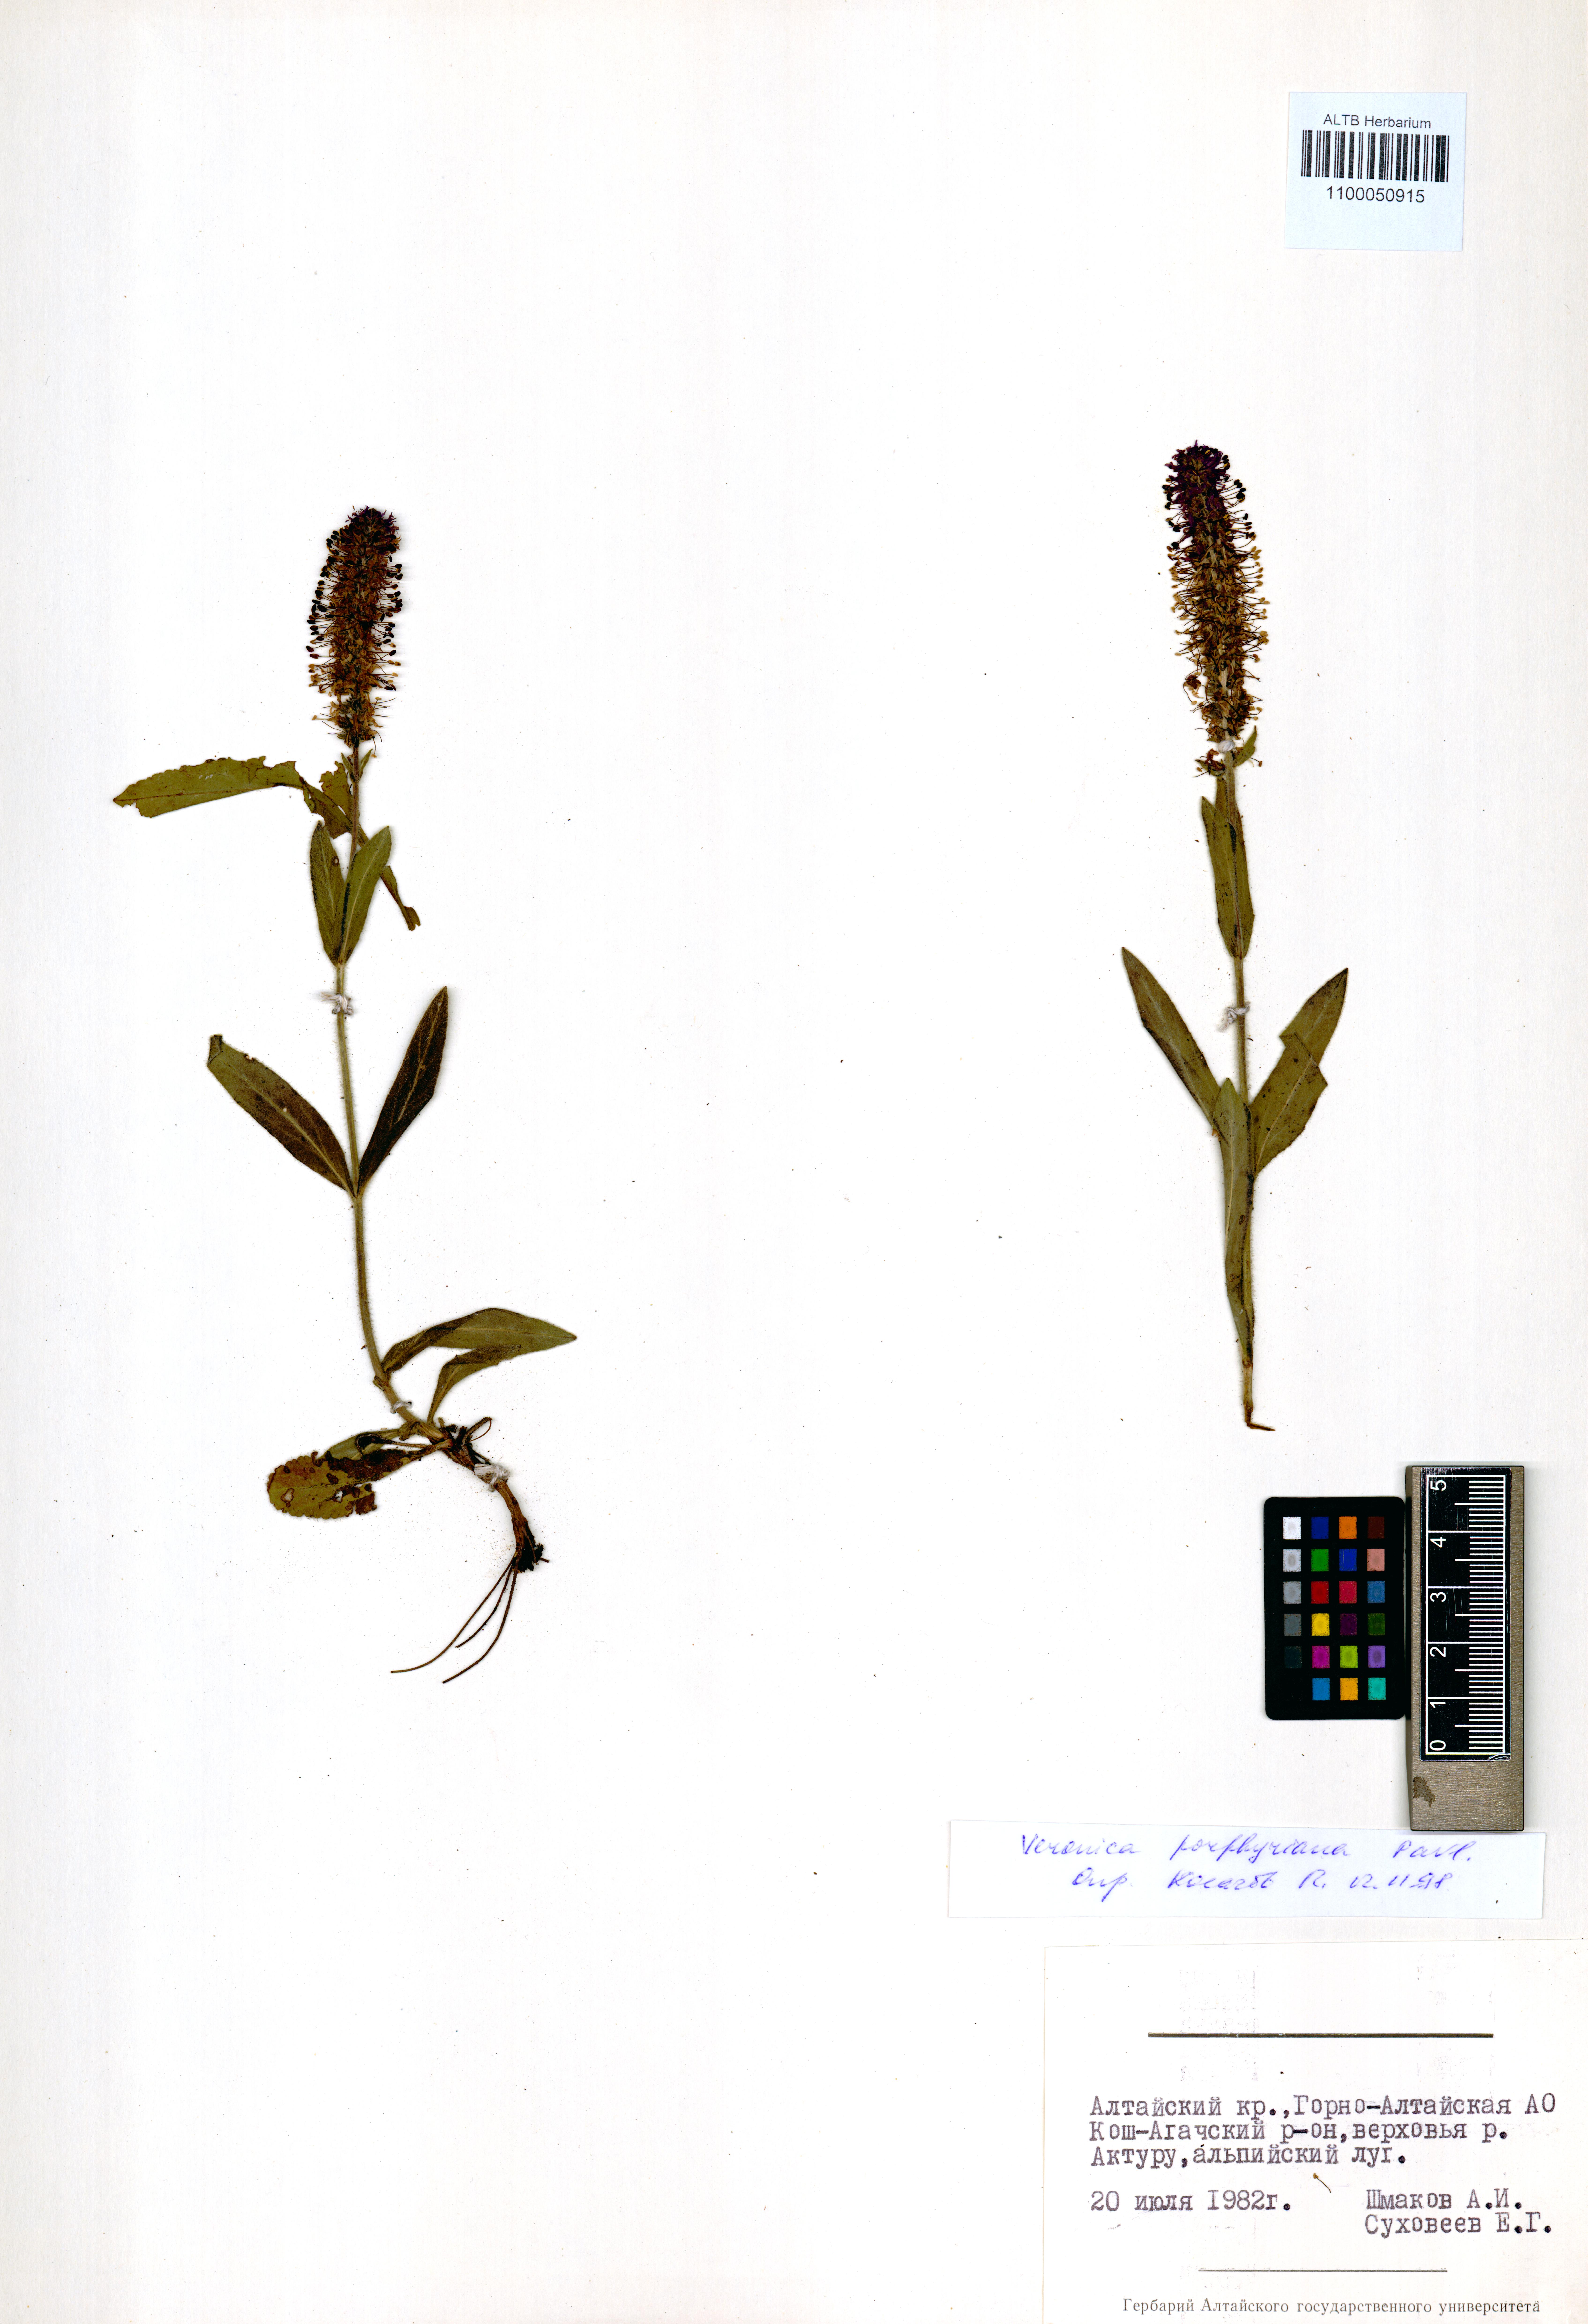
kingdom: Plantae
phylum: Tracheophyta
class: Magnoliopsida
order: Lamiales
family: Plantaginaceae
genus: Veronica
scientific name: Veronica porphyriana
